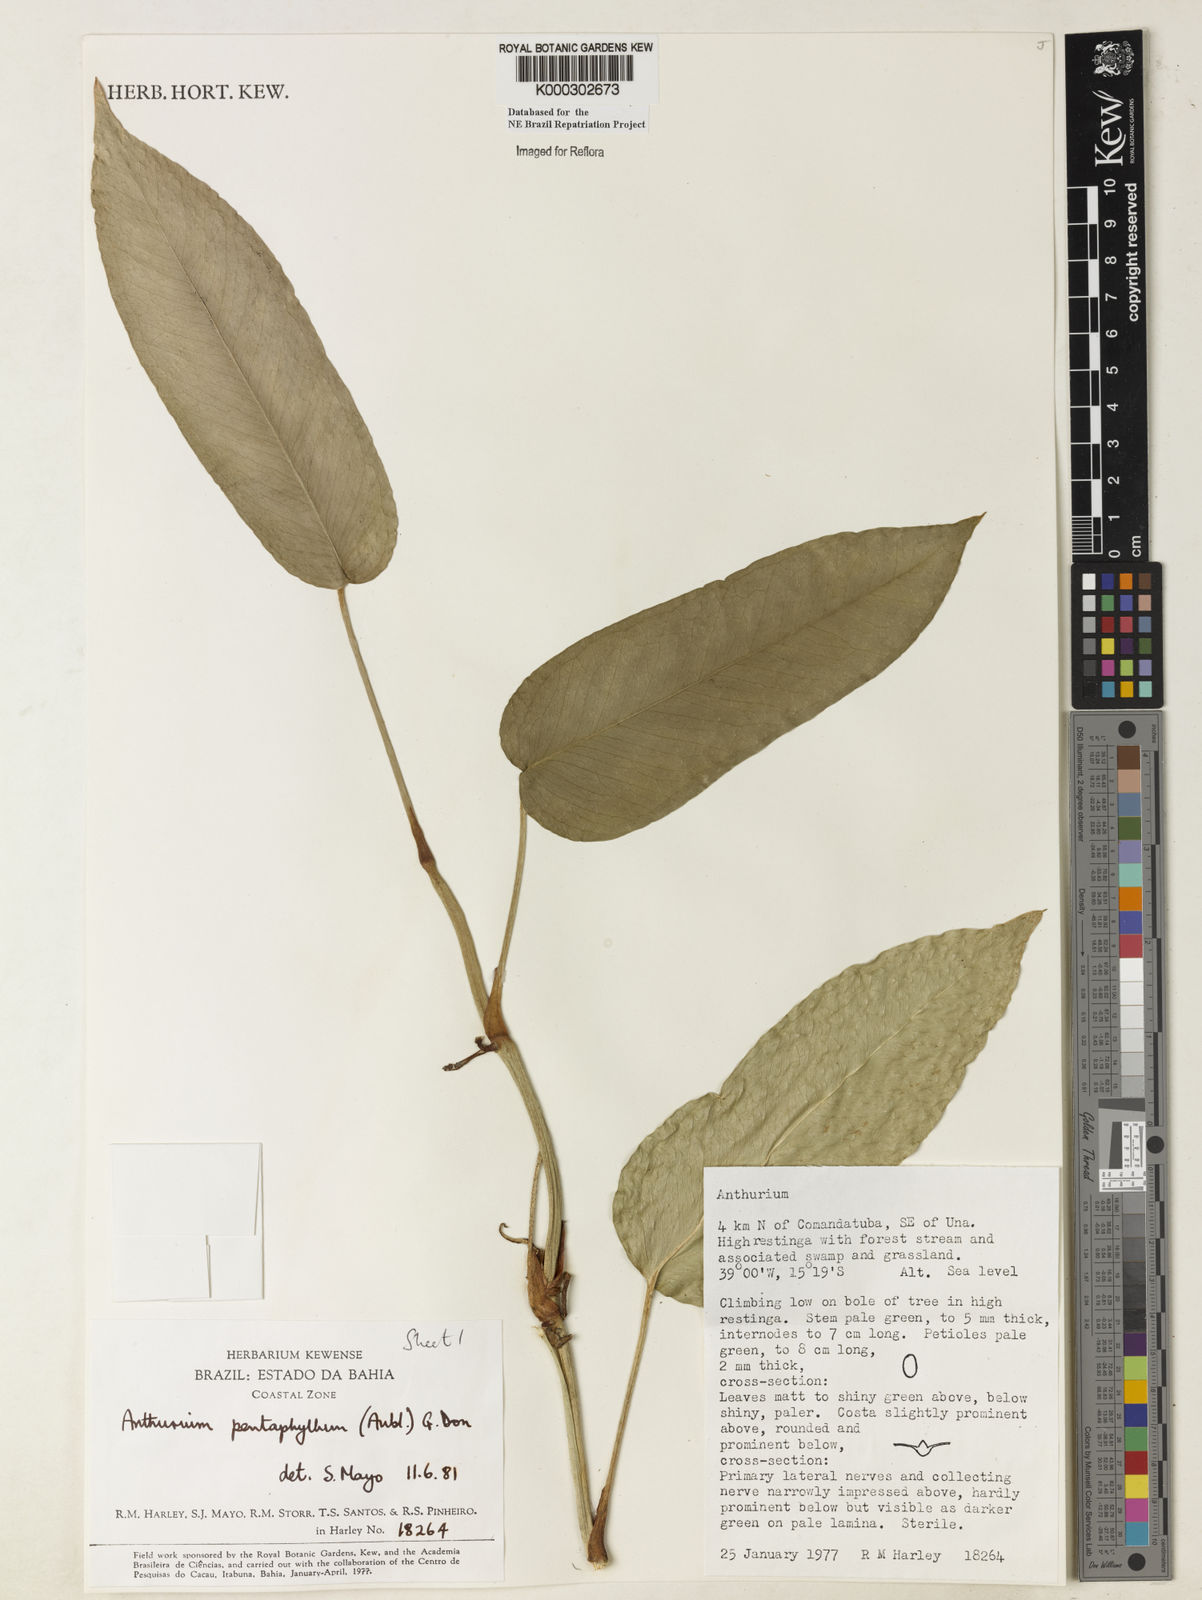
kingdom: Plantae
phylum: Tracheophyta
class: Liliopsida
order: Alismatales
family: Araceae
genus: Anthurium
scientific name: Anthurium pentaphyllum
